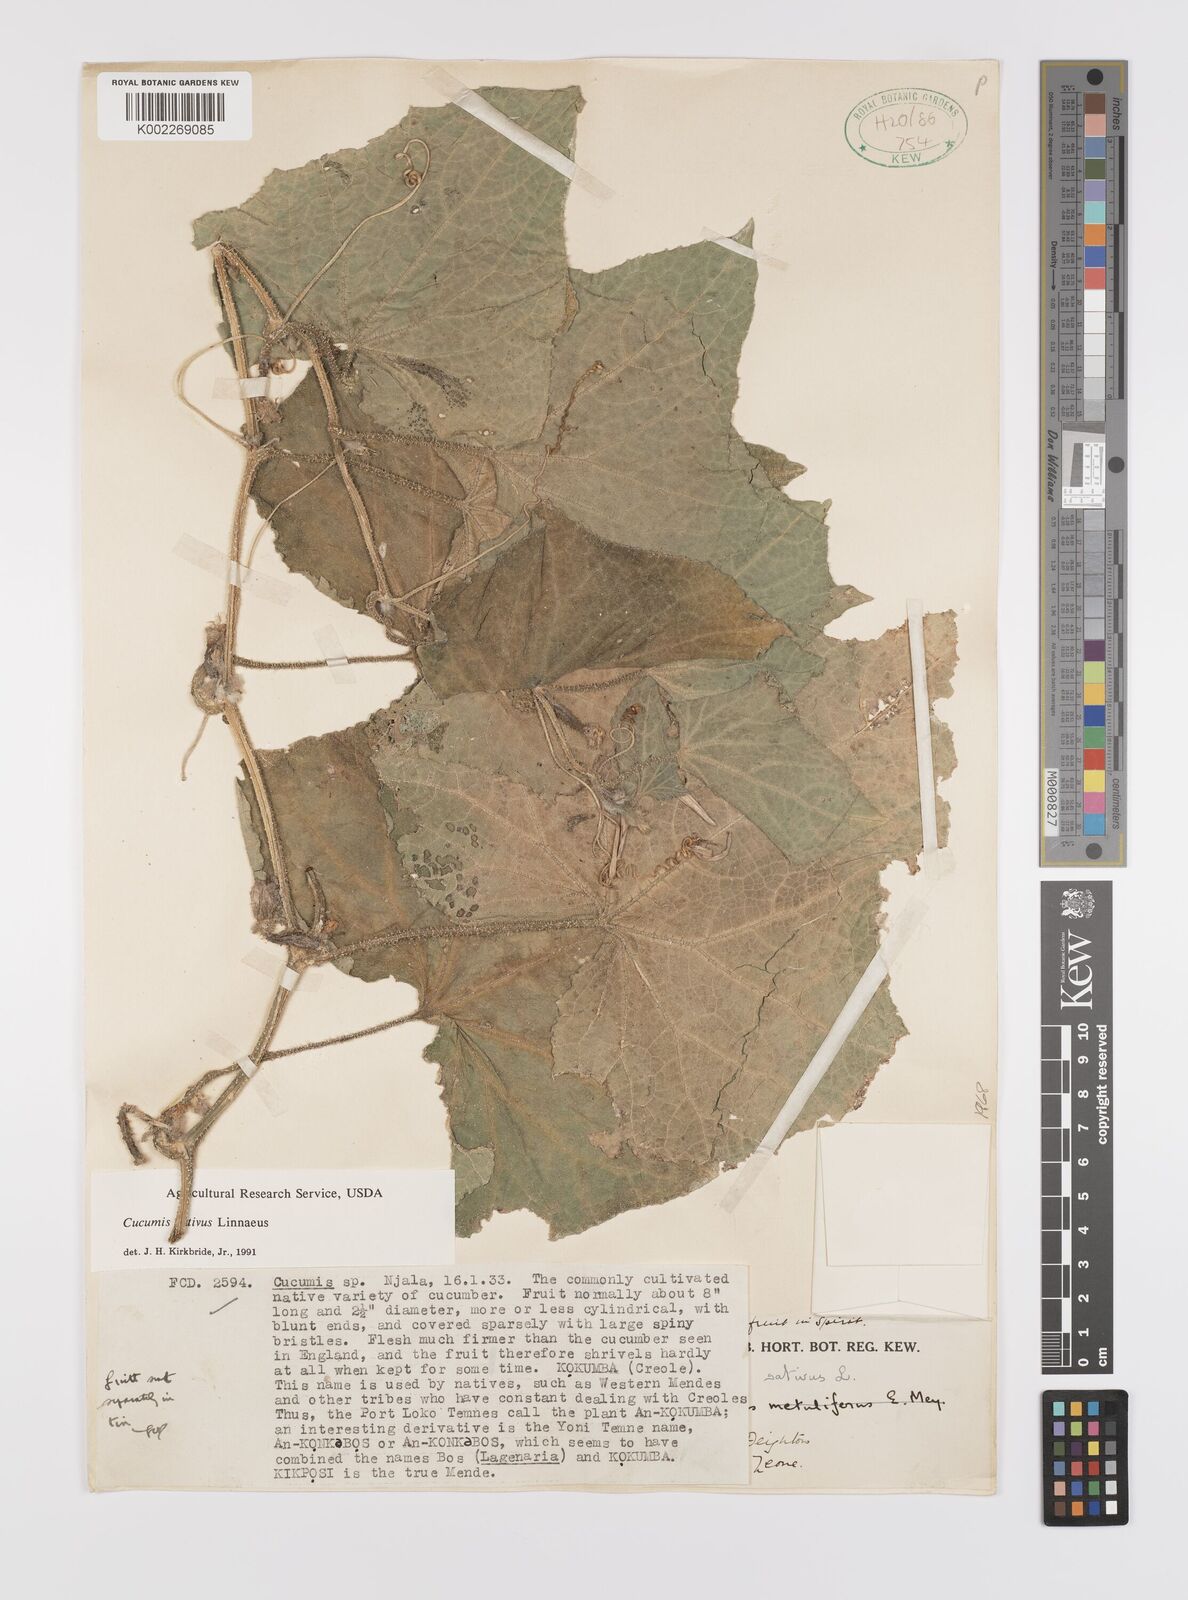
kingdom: Plantae
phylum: Tracheophyta
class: Magnoliopsida
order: Cucurbitales
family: Cucurbitaceae
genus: Cucumis
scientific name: Cucumis sativus
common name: Cucumber
